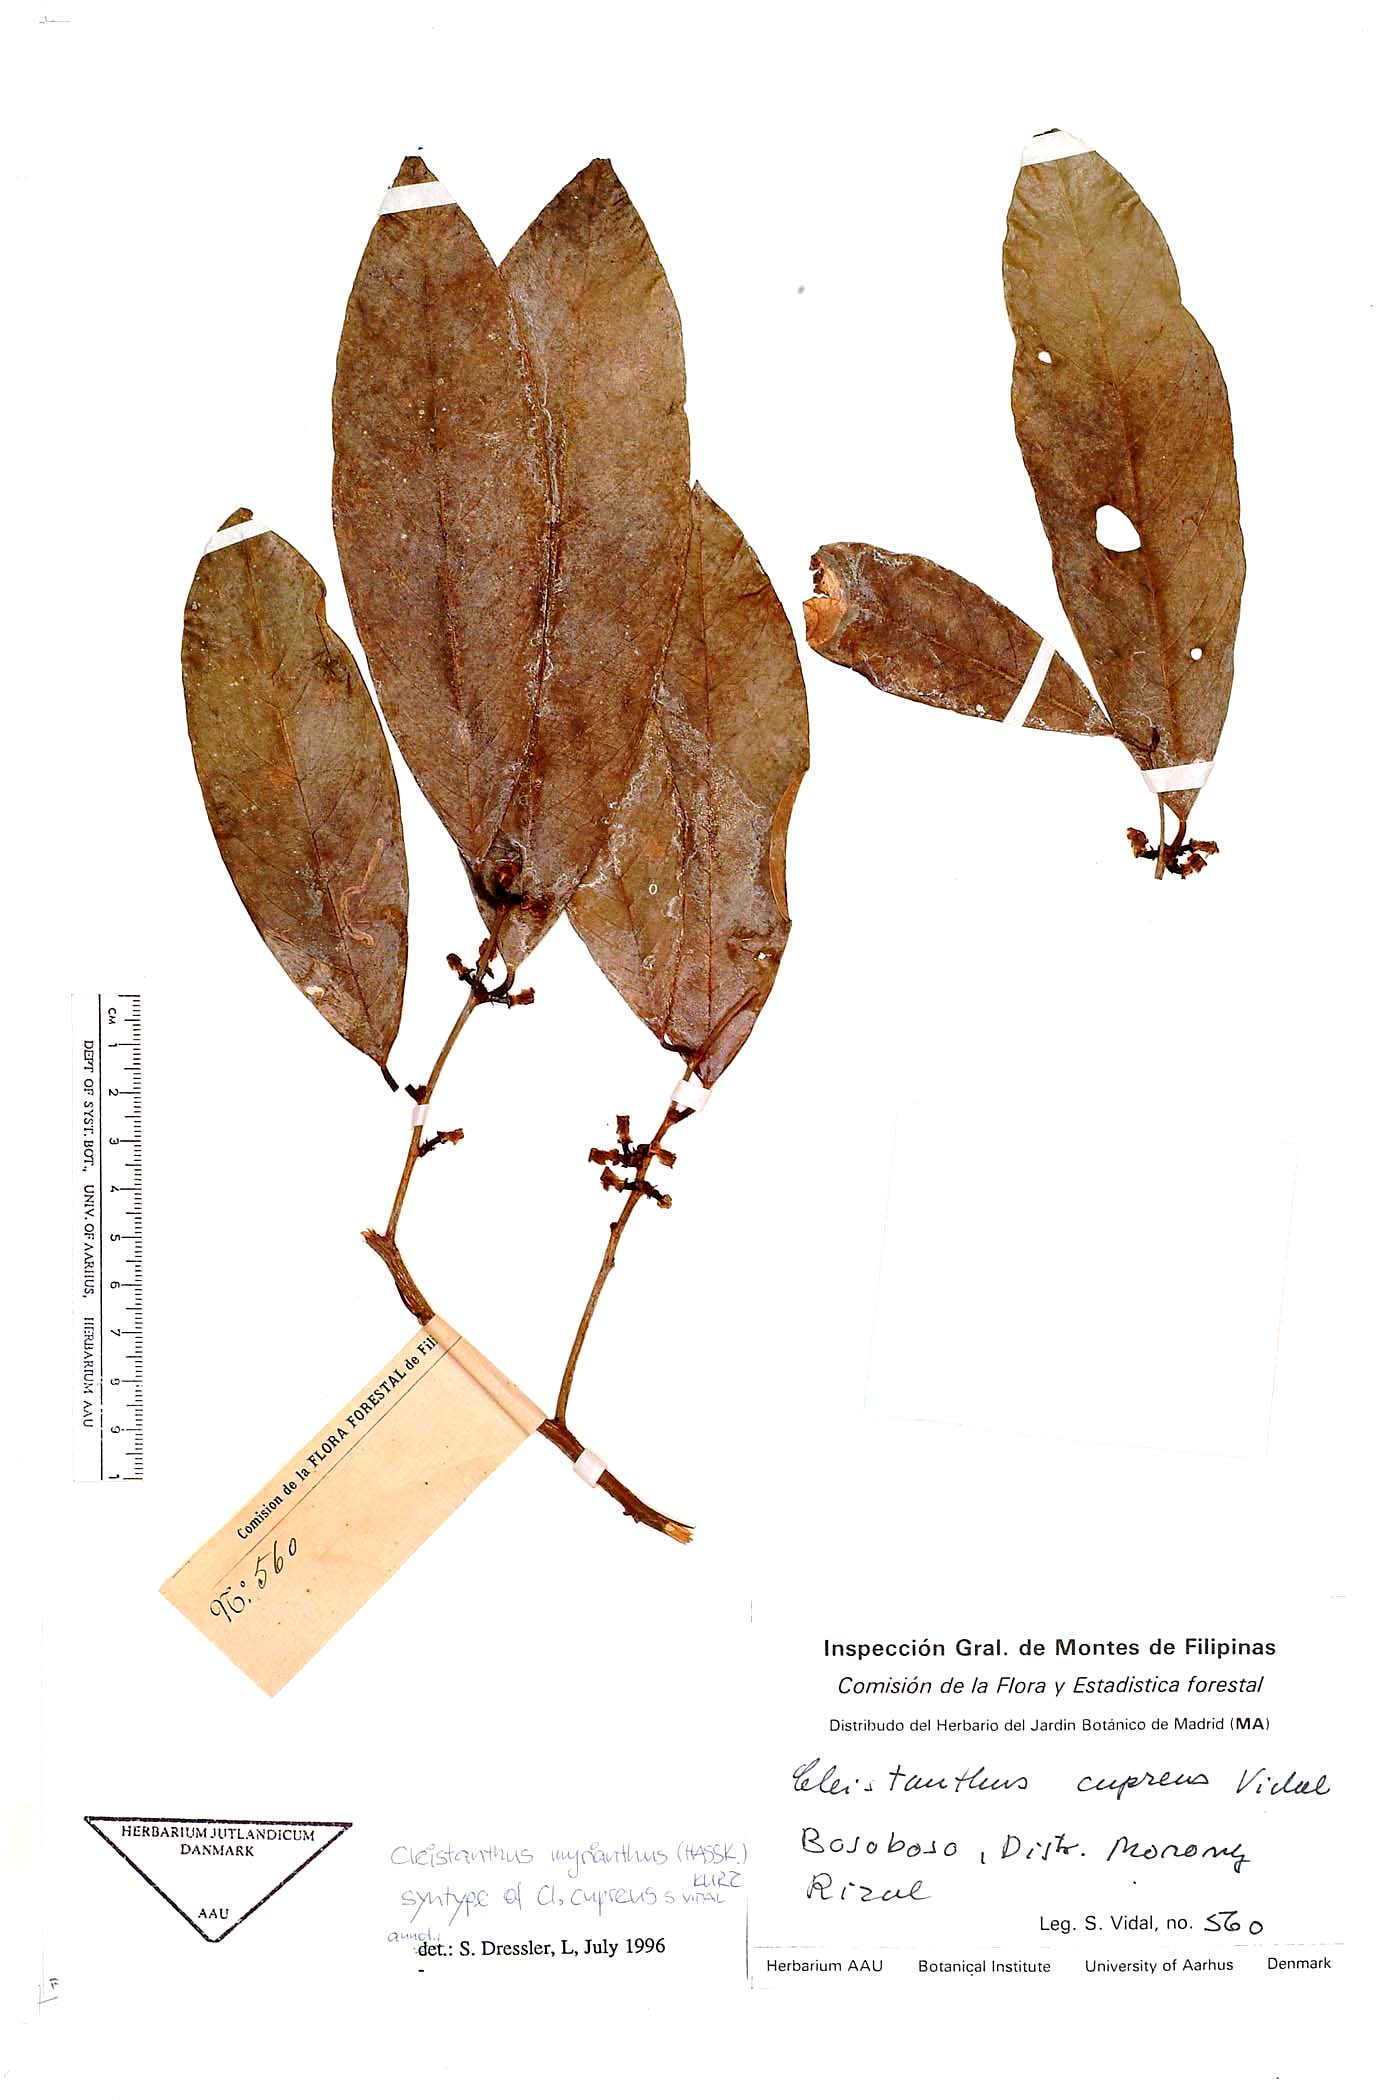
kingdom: Plantae
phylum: Tracheophyta
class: Magnoliopsida
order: Malpighiales
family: Phyllanthaceae
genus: Cleistanthus
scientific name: Cleistanthus oblongifolius
